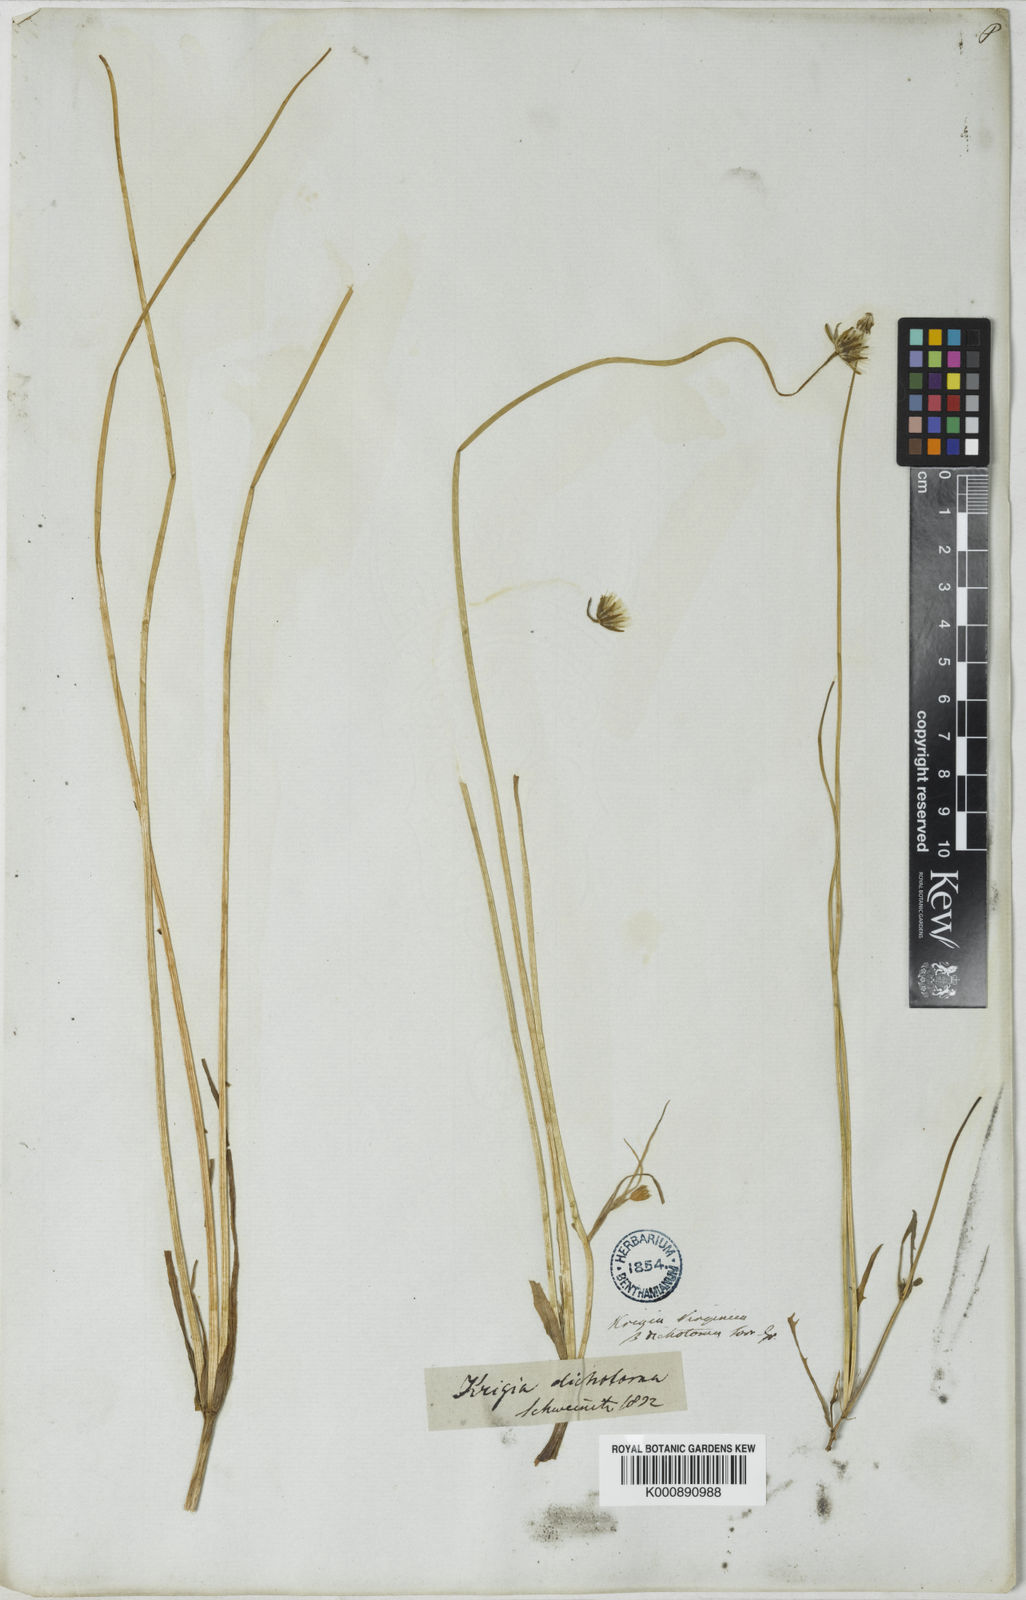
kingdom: Plantae
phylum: Tracheophyta
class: Magnoliopsida
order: Asterales
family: Asteraceae
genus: Krigia
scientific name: Krigia occidentalis
